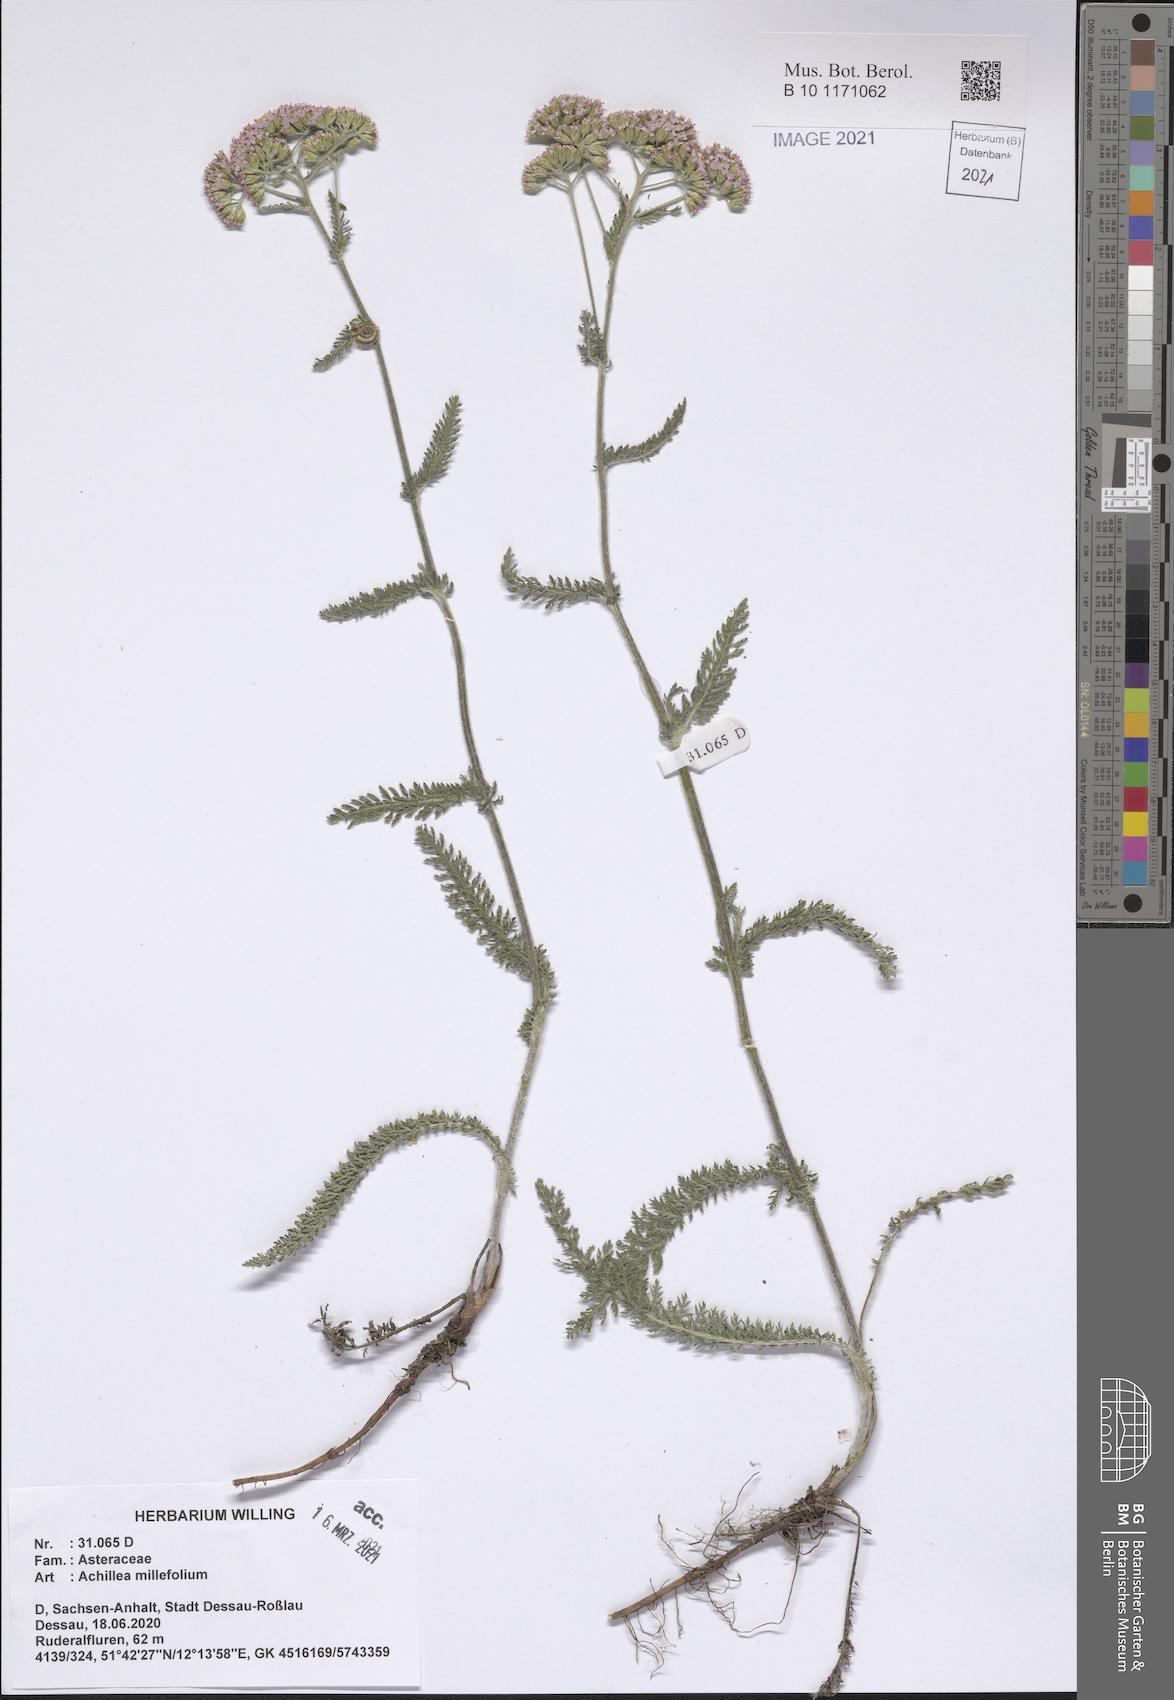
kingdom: Plantae
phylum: Tracheophyta
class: Magnoliopsida
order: Asterales
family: Asteraceae
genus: Achillea
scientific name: Achillea millefolium
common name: Yarrow
